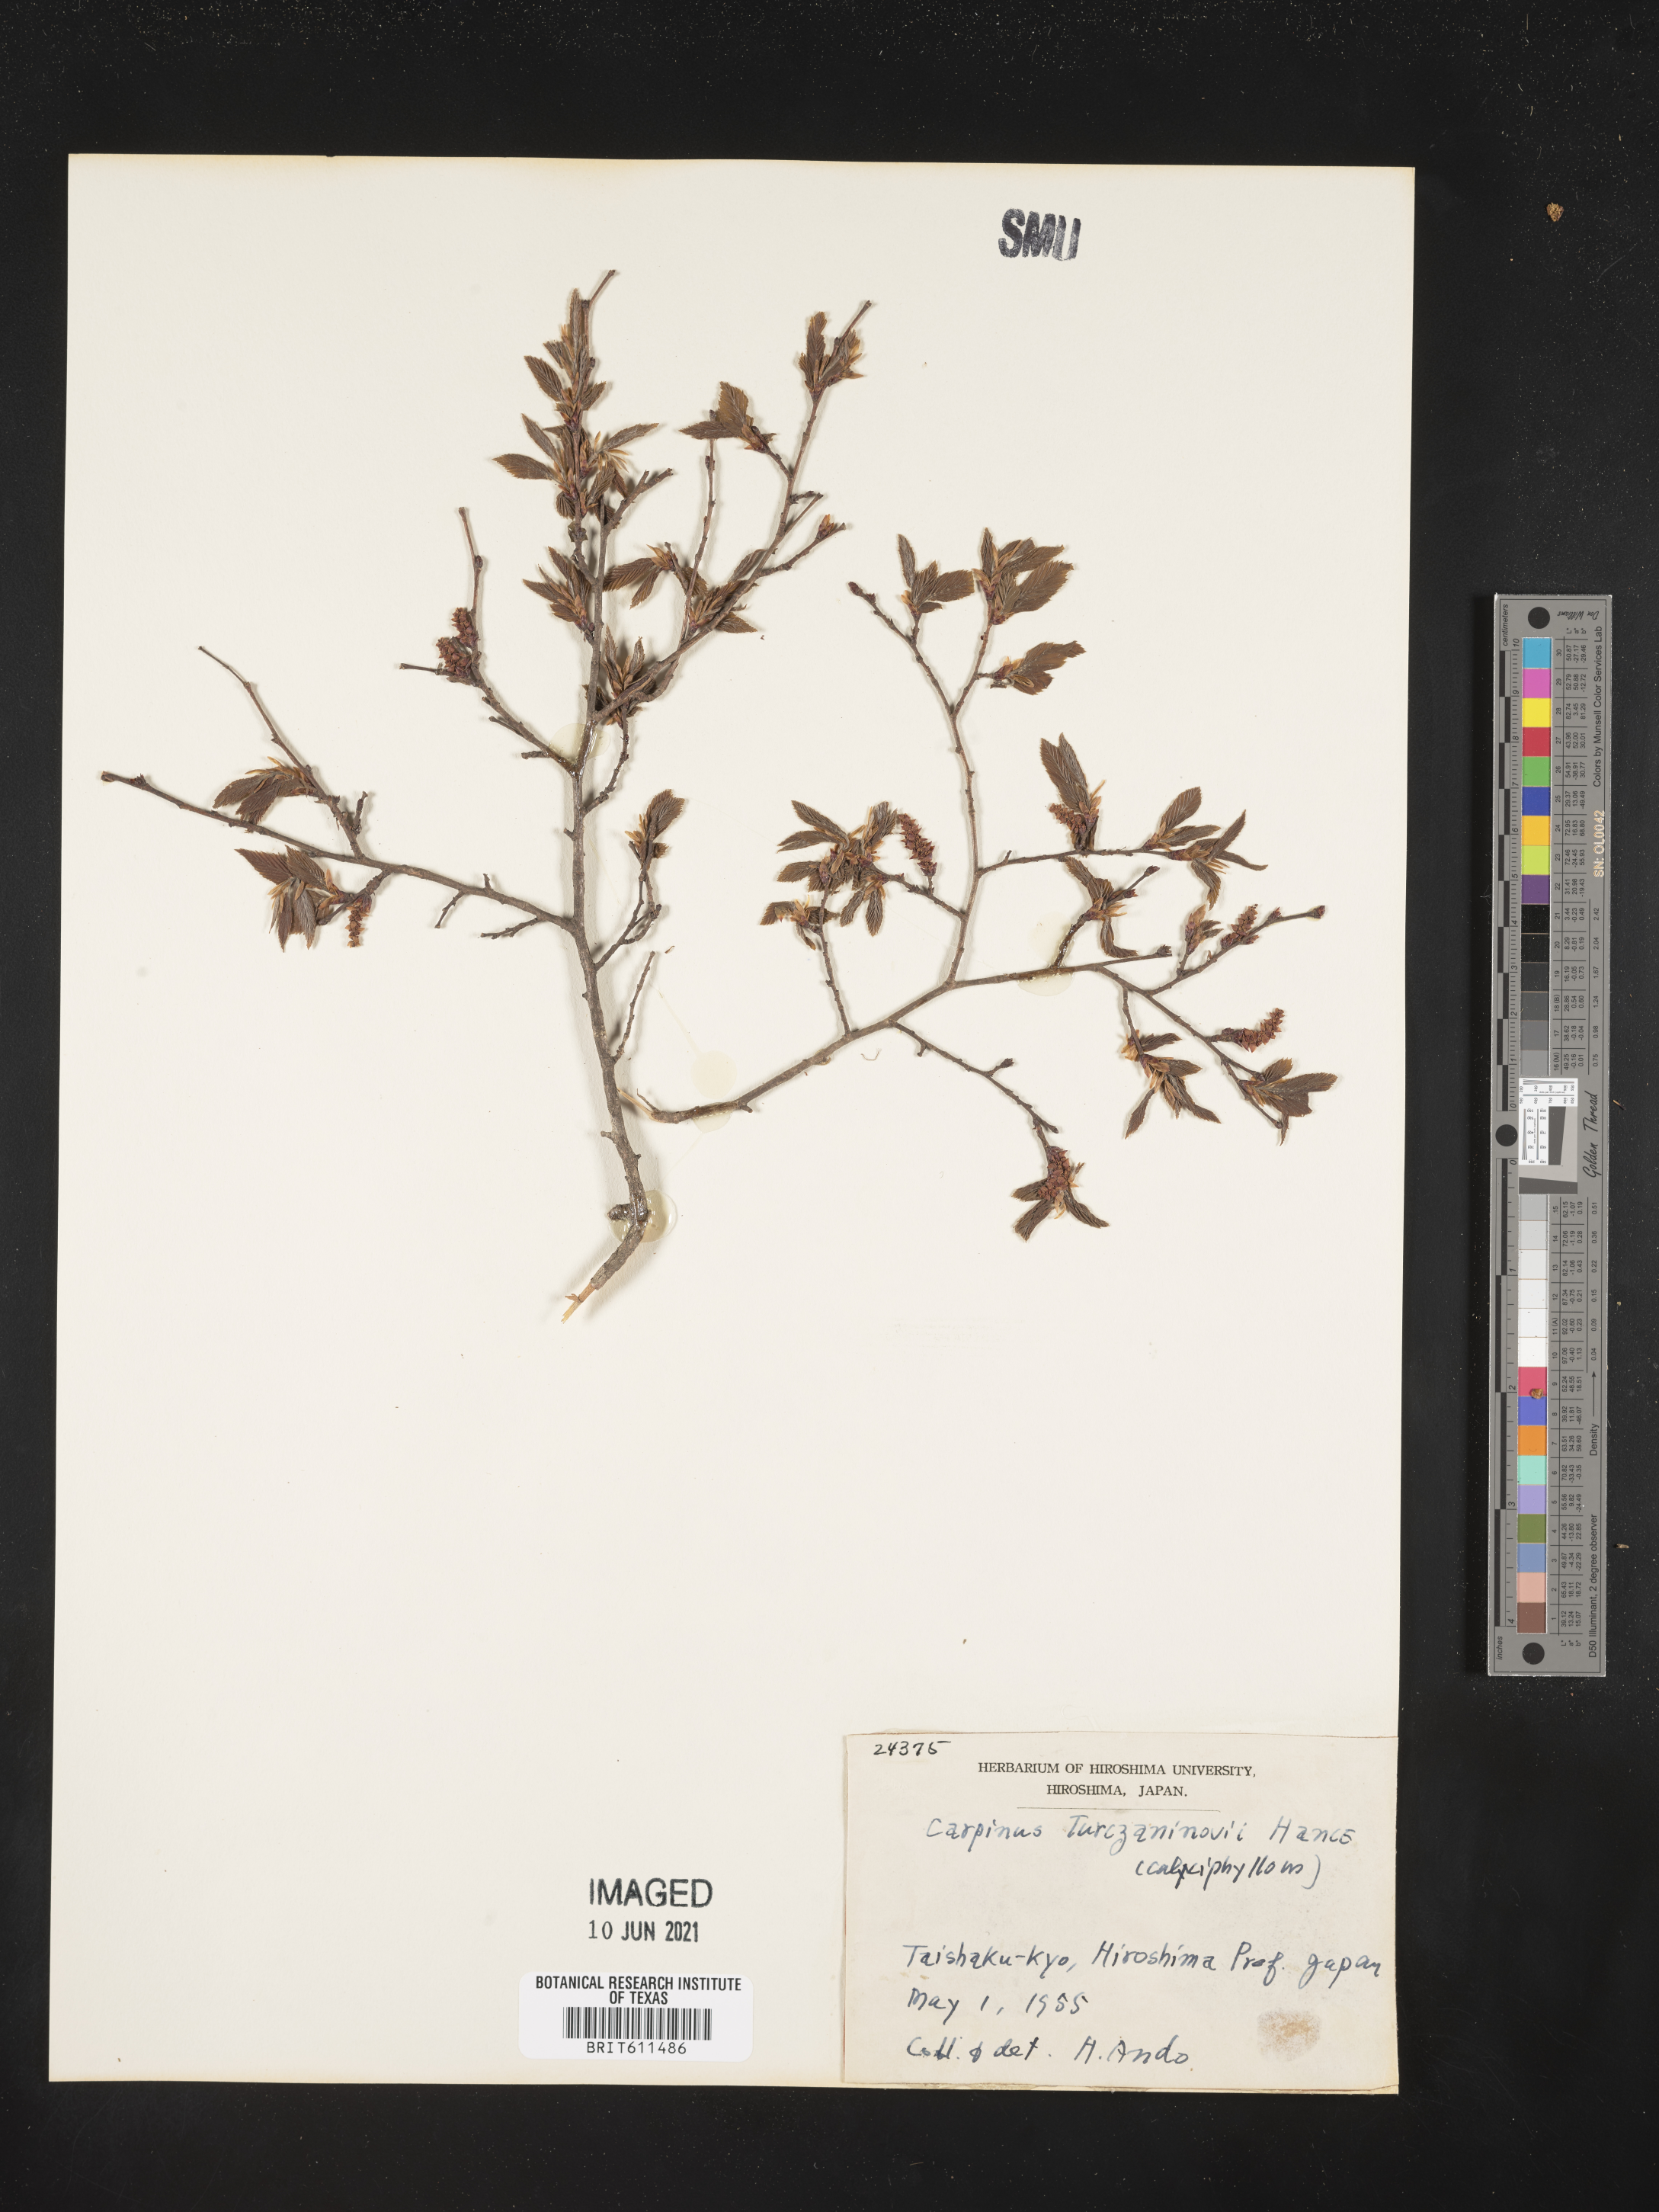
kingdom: Plantae
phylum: Tracheophyta
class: Magnoliopsida
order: Fagales
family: Betulaceae
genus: Carpinus
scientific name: Carpinus turczaninovii
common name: Korean hornbeam
